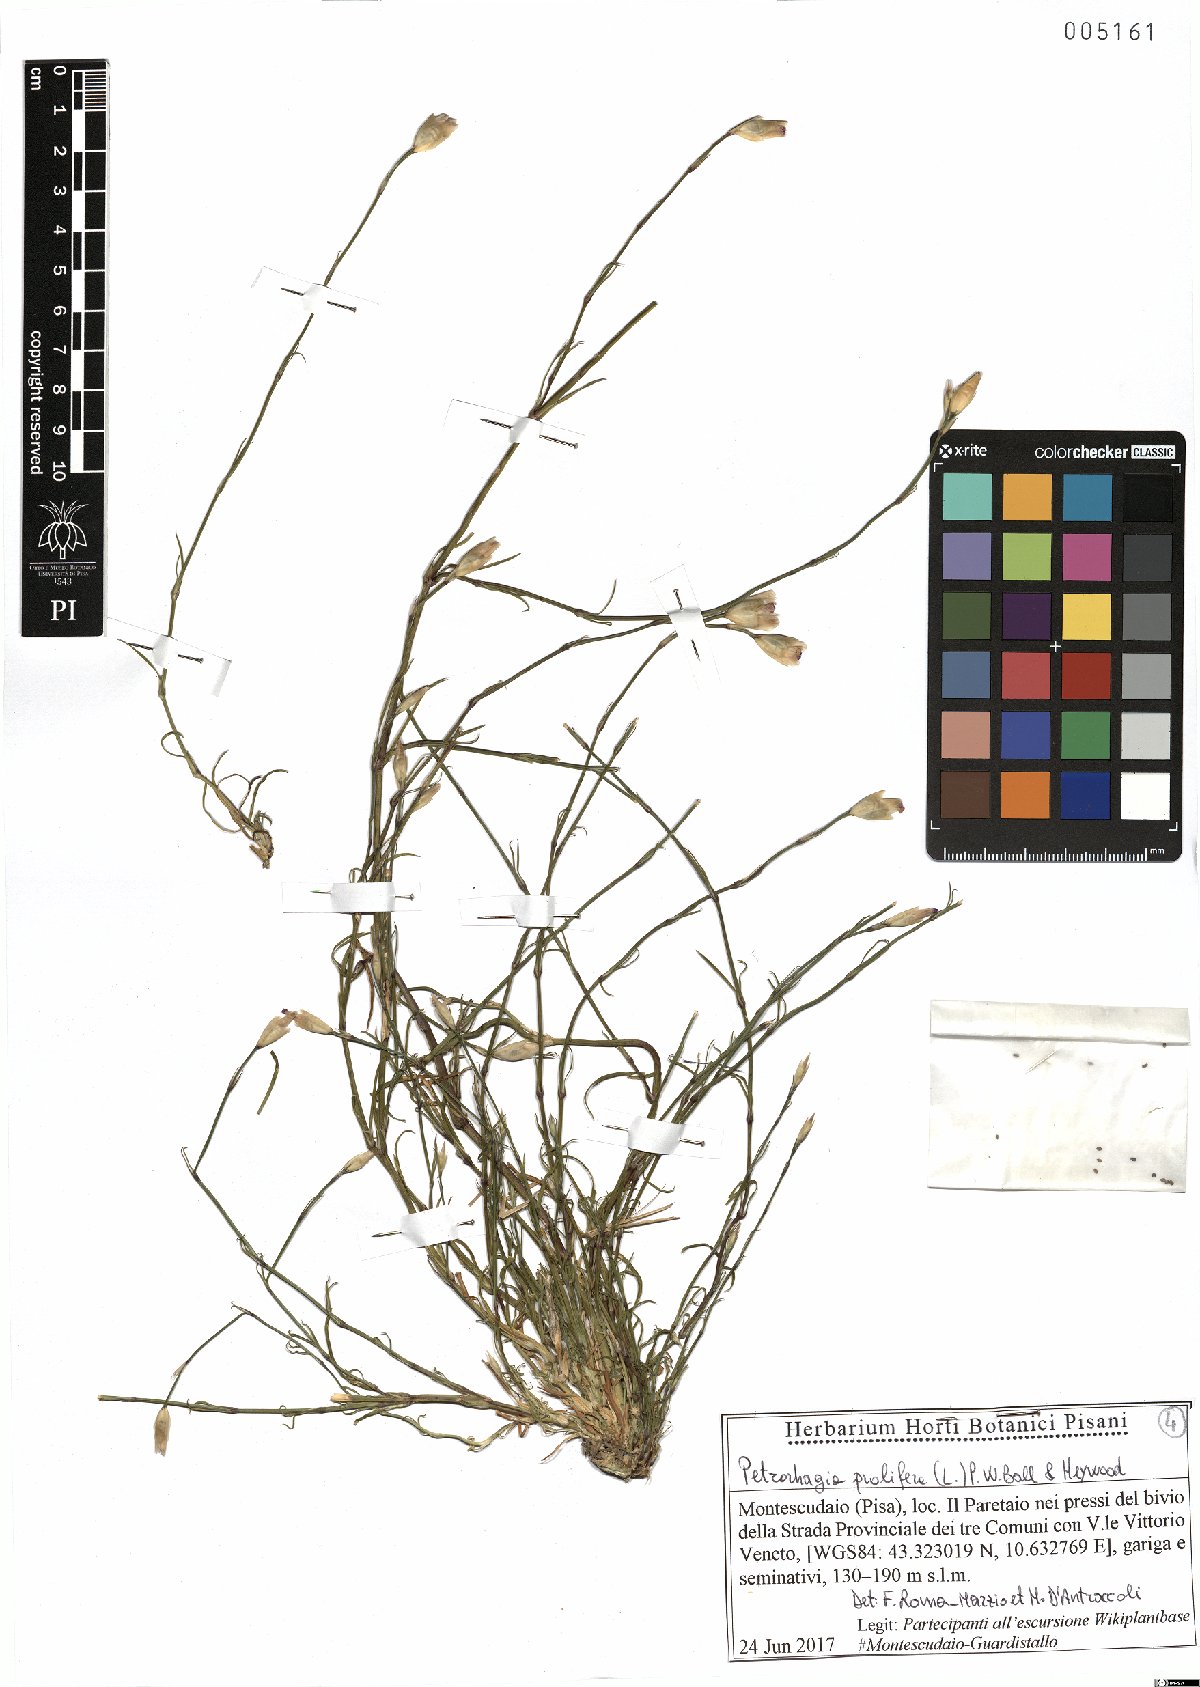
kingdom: Plantae
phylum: Tracheophyta
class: Magnoliopsida
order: Caryophyllales
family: Caryophyllaceae
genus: Petrorhagia
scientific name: Petrorhagia prolifera
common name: Proliferous pink
